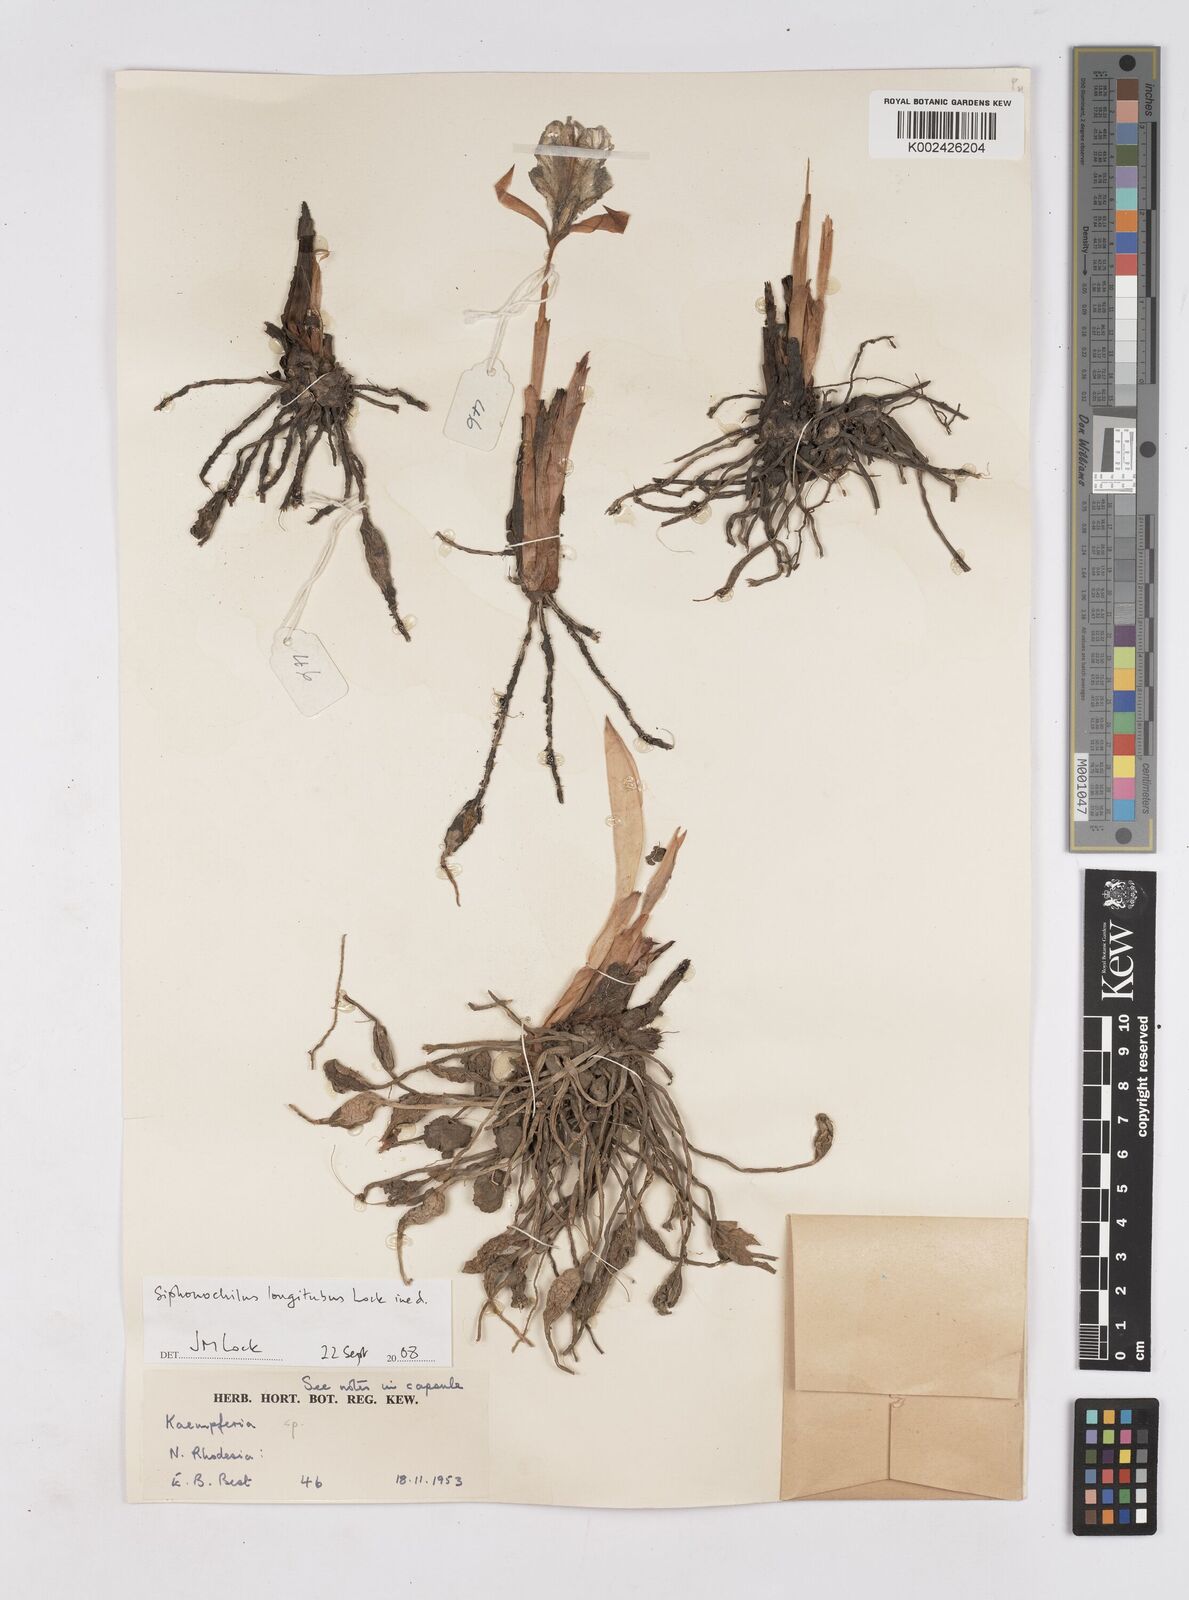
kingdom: Plantae
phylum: Tracheophyta
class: Liliopsida
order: Zingiberales
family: Zingiberaceae
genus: Siphonochilus
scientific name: Siphonochilus longitubus
